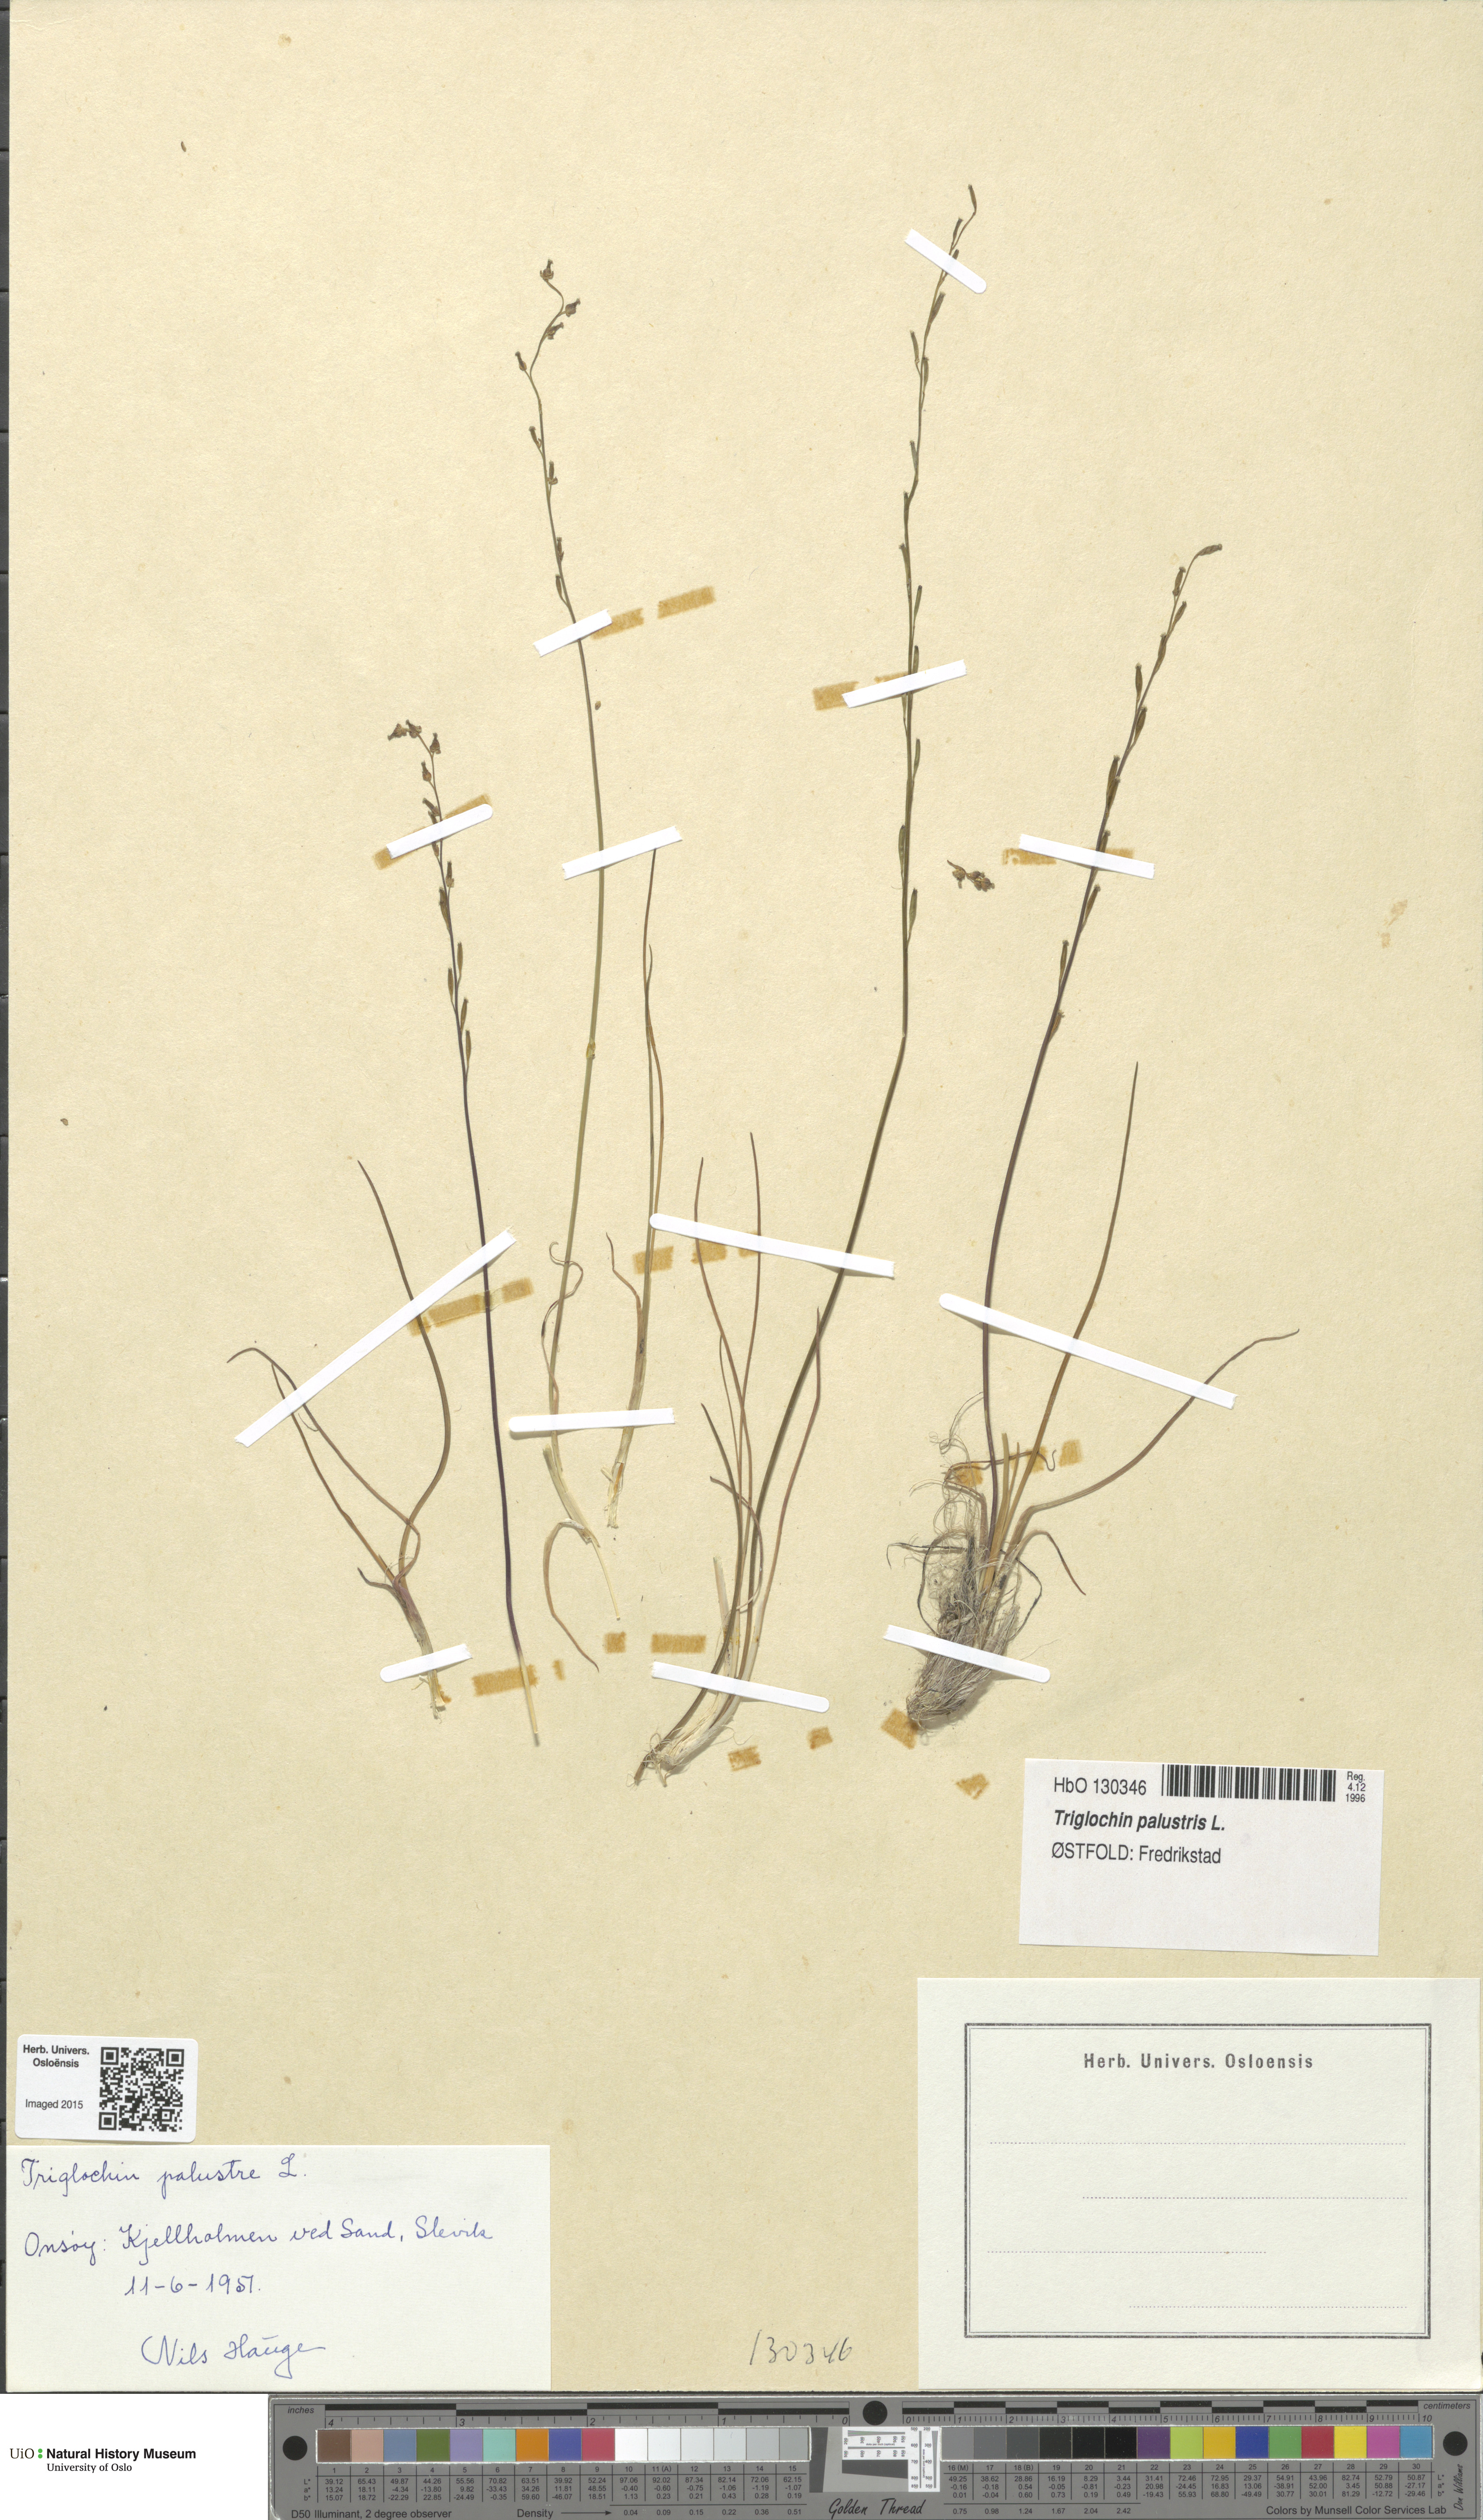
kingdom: Plantae
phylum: Tracheophyta
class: Liliopsida
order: Alismatales
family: Juncaginaceae
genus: Triglochin
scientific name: Triglochin palustris
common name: Marsh arrowgrass
